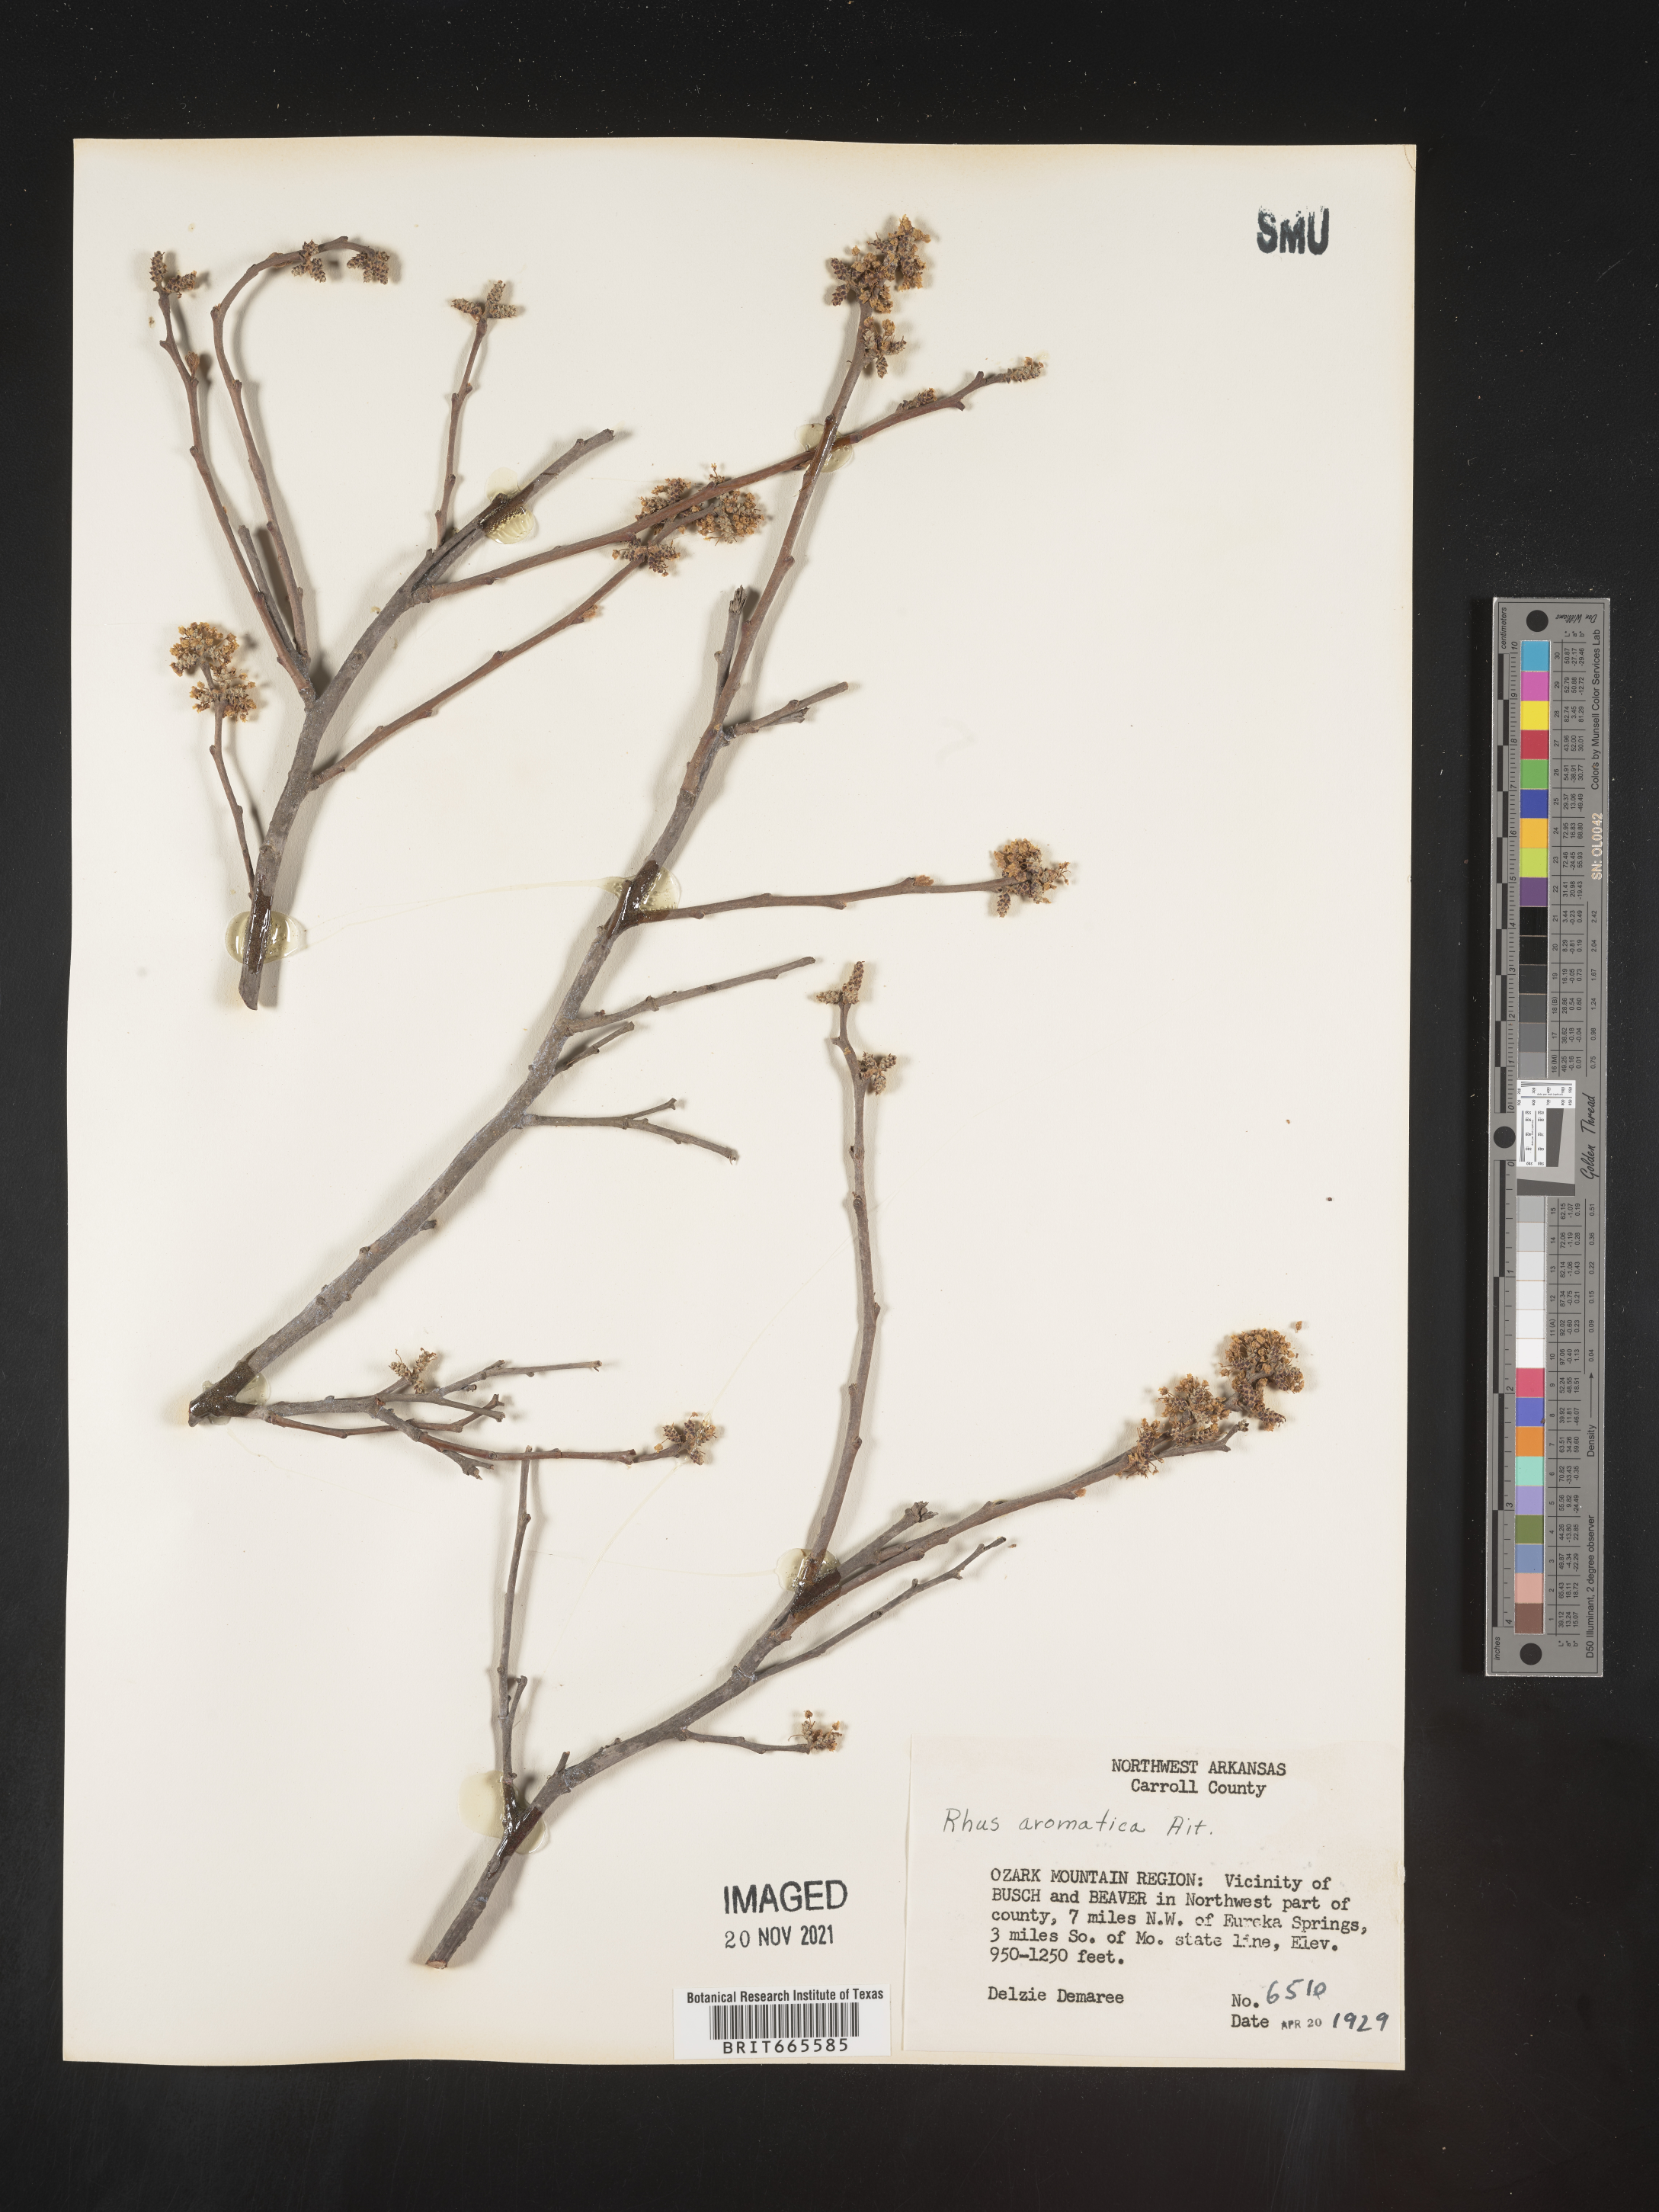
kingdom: Plantae
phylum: Tracheophyta
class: Magnoliopsida
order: Sapindales
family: Anacardiaceae
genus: Rhus
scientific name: Rhus aromatica
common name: Aromatic sumac
